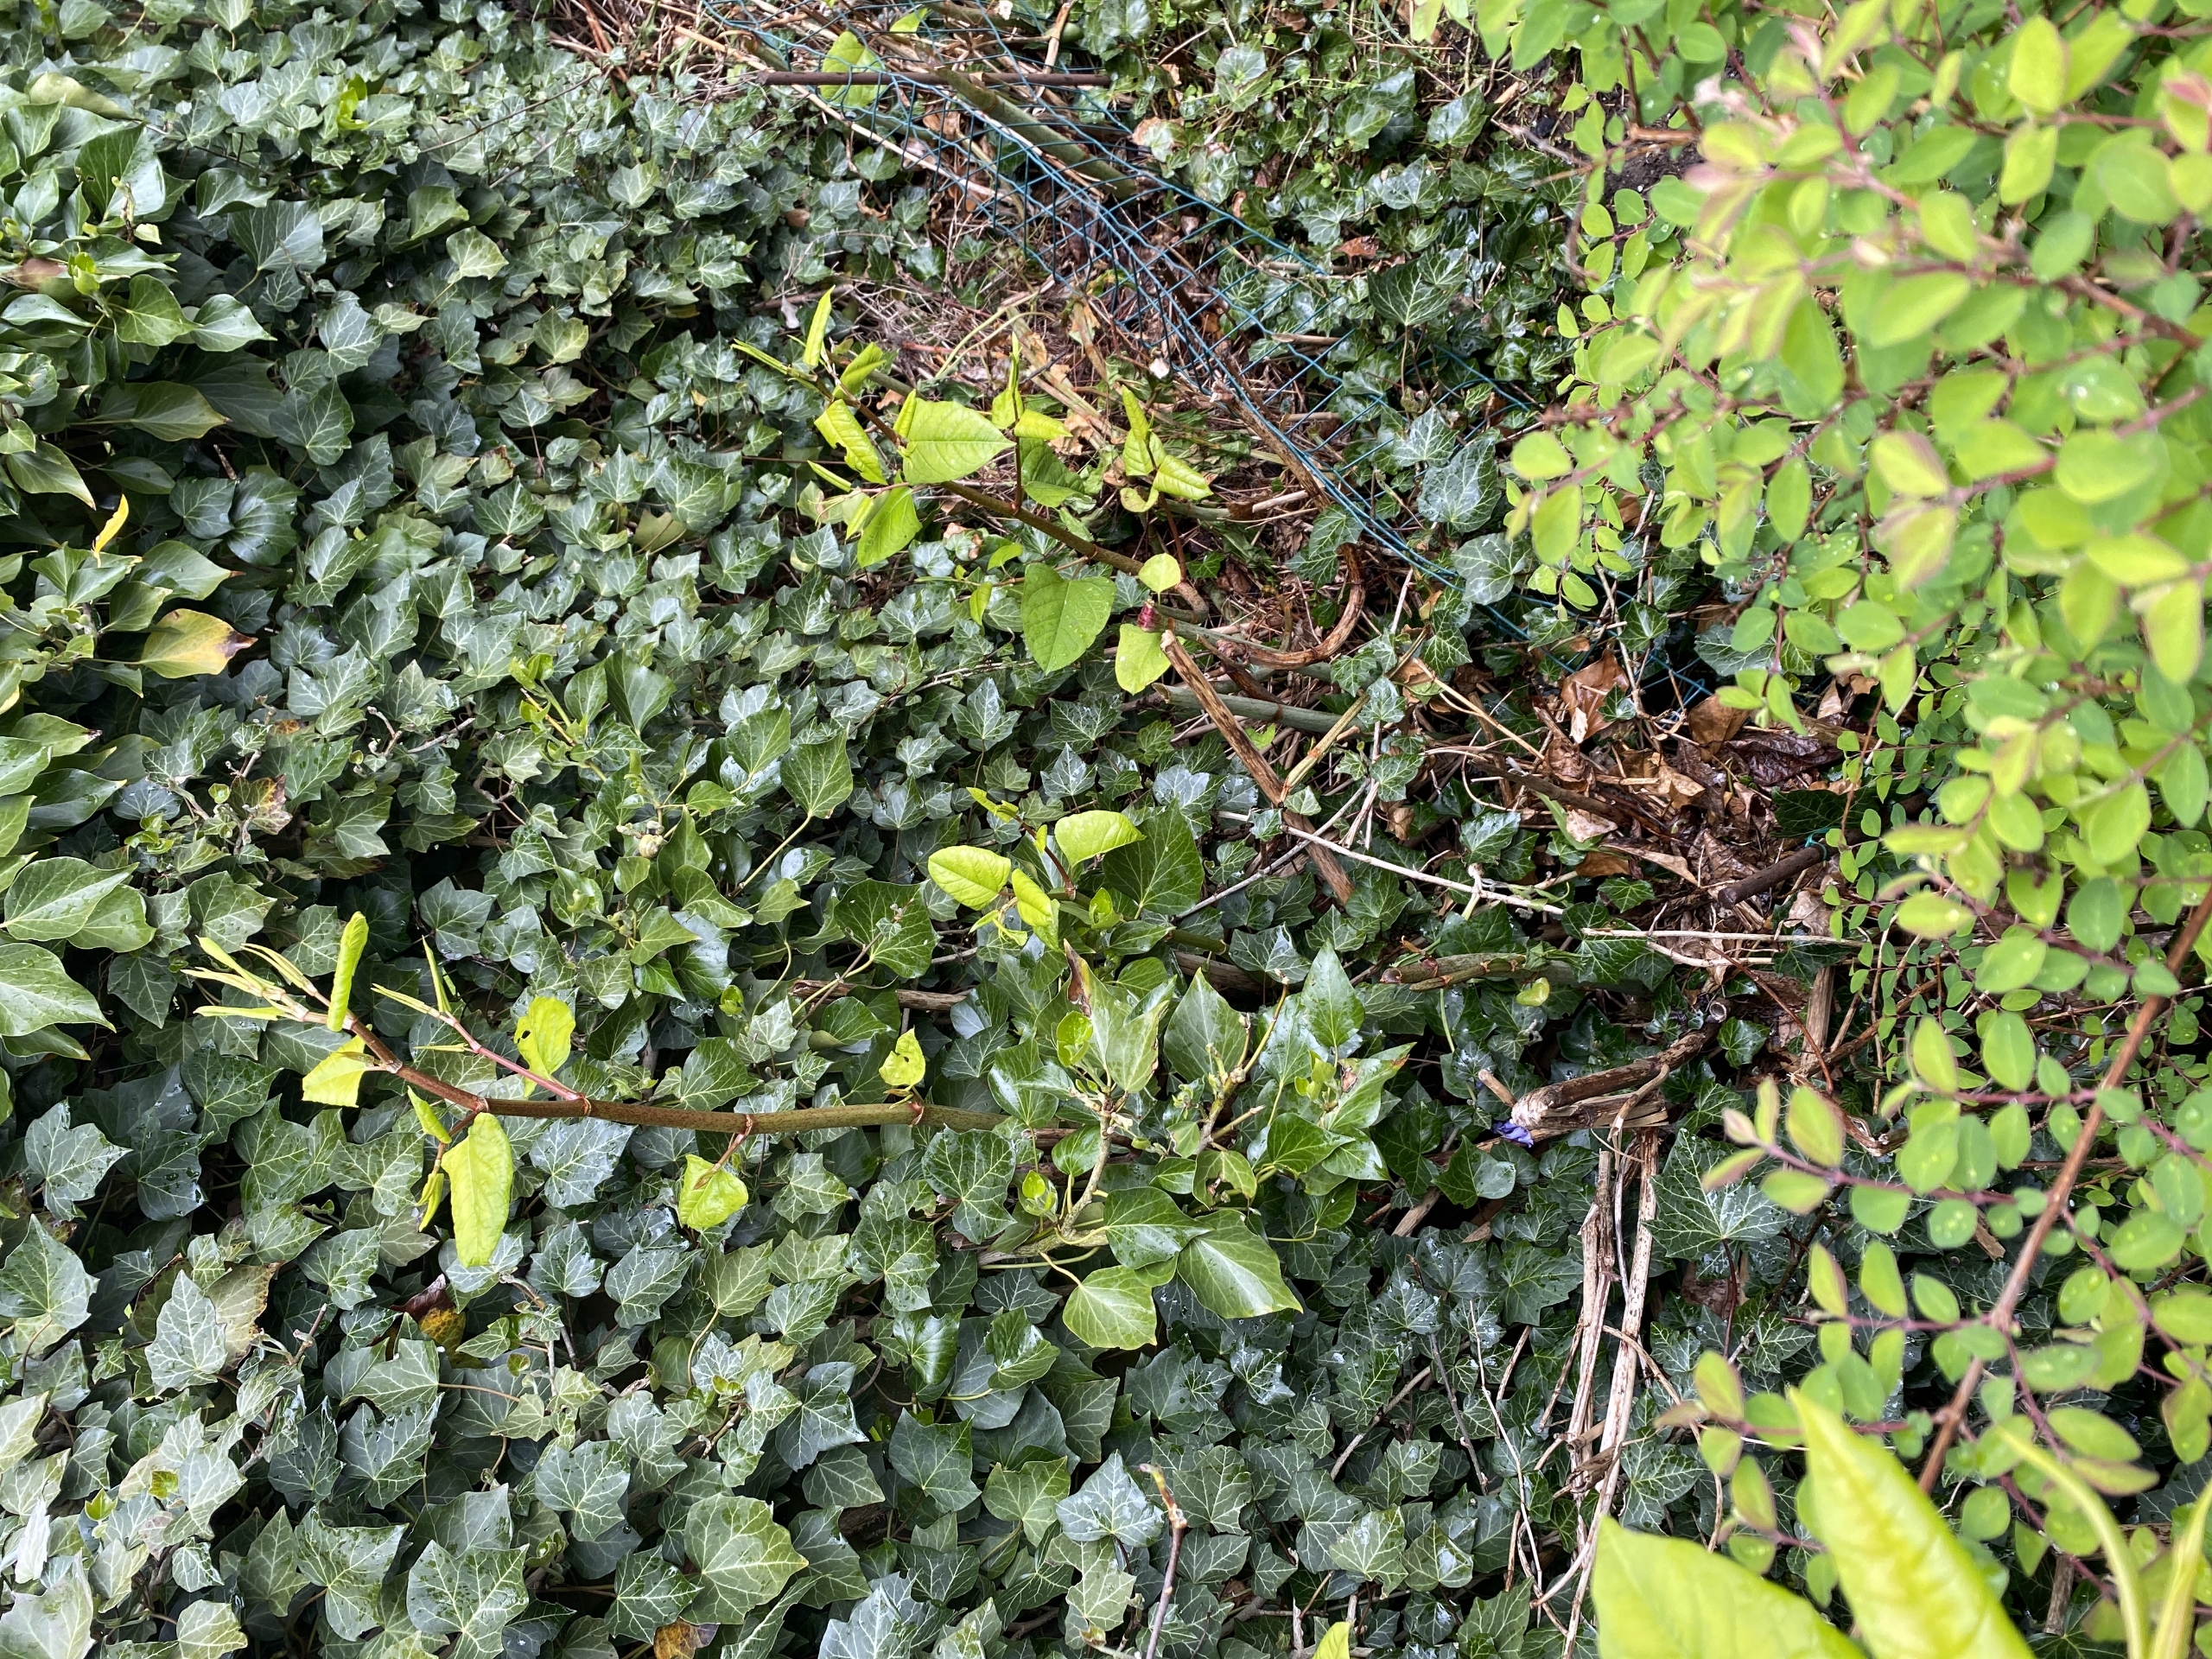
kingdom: Plantae
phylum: Tracheophyta
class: Magnoliopsida
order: Caryophyllales
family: Polygonaceae
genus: Reynoutria
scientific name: Reynoutria japonica
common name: Japan-pileurt
